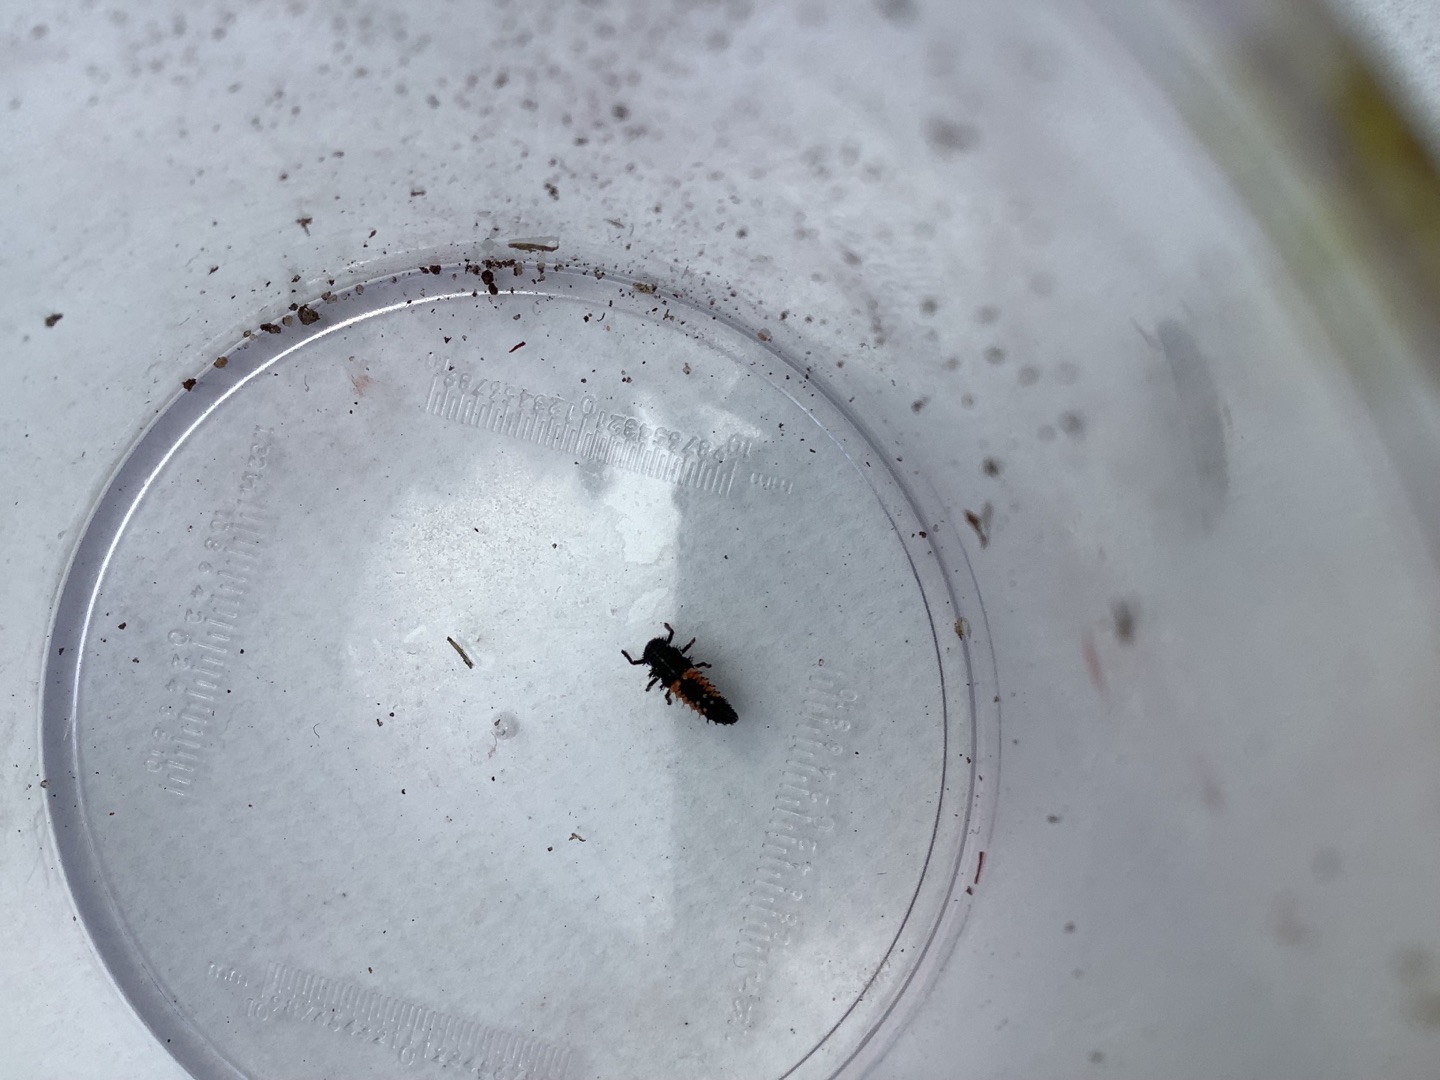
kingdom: Animalia
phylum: Arthropoda
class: Insecta
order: Coleoptera
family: Coccinellidae
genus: Harmonia
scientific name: Harmonia axyridis
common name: Harlekinmariehøne
